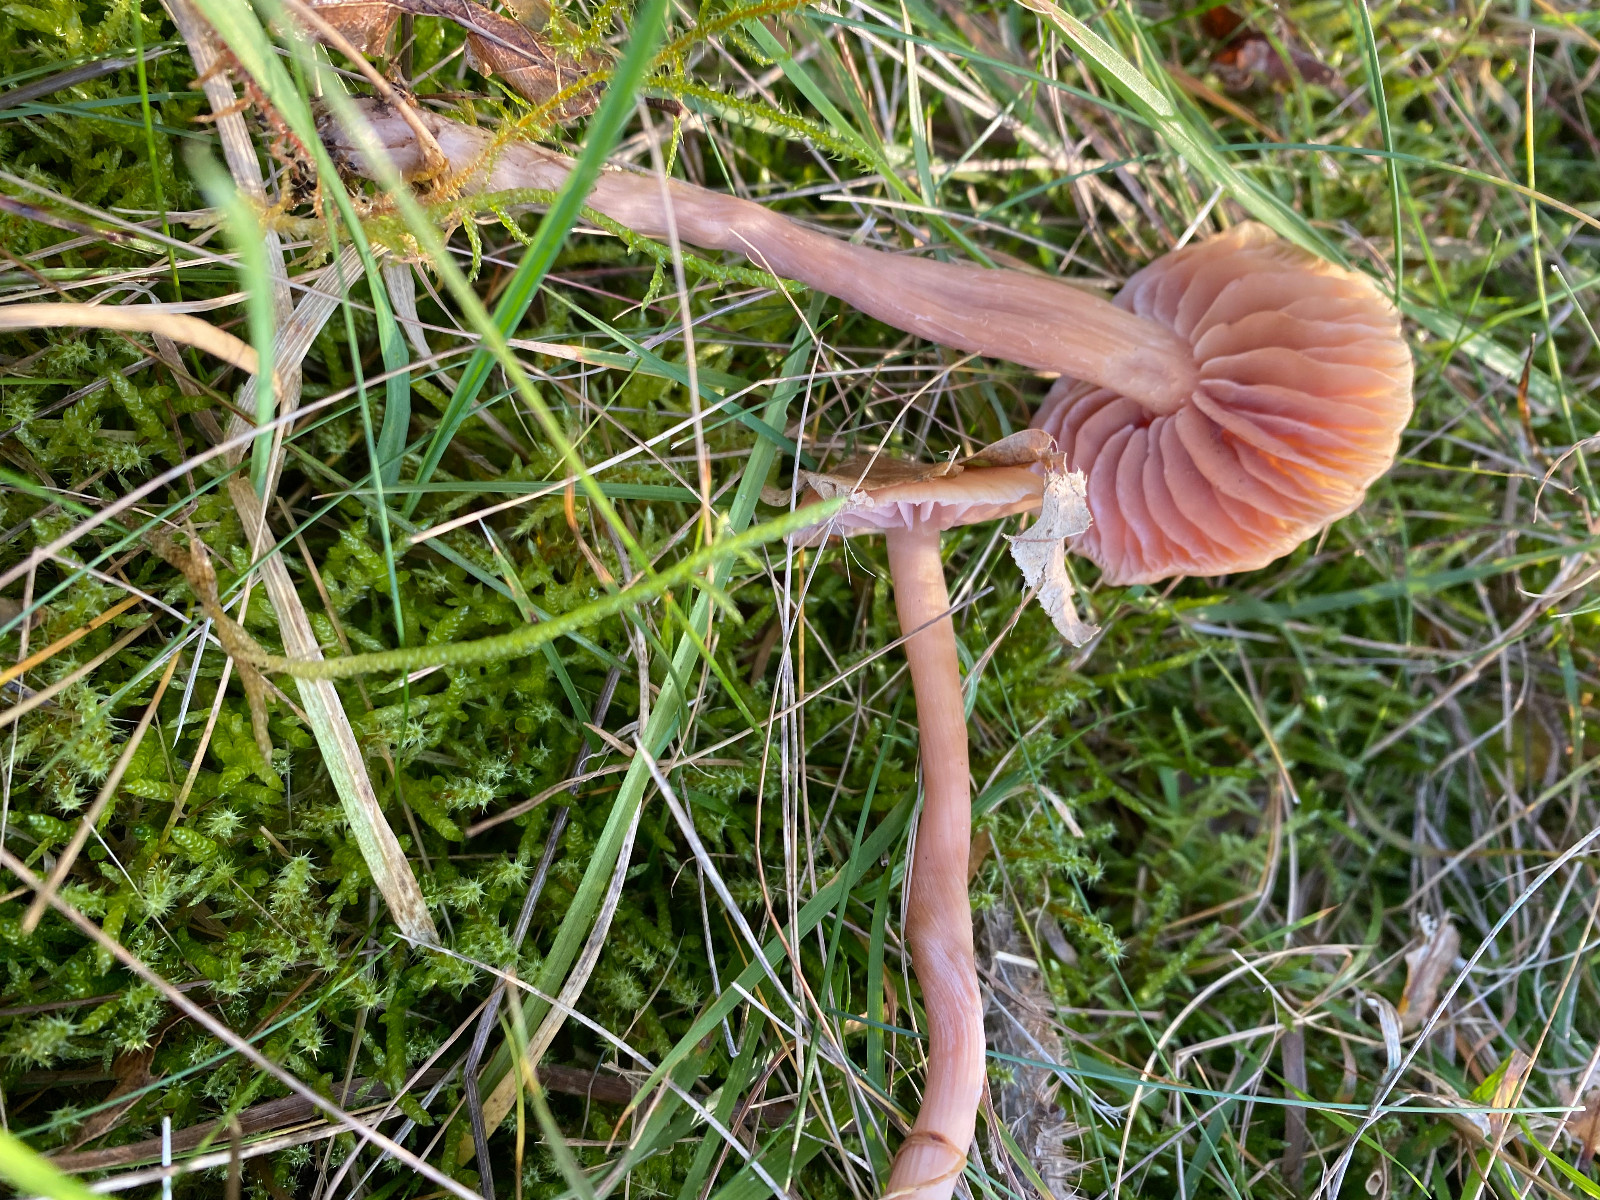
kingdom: Fungi
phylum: Basidiomycota
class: Agaricomycetes
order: Agaricales
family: Hydnangiaceae
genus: Laccaria
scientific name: Laccaria laccata
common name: rød ametysthat
